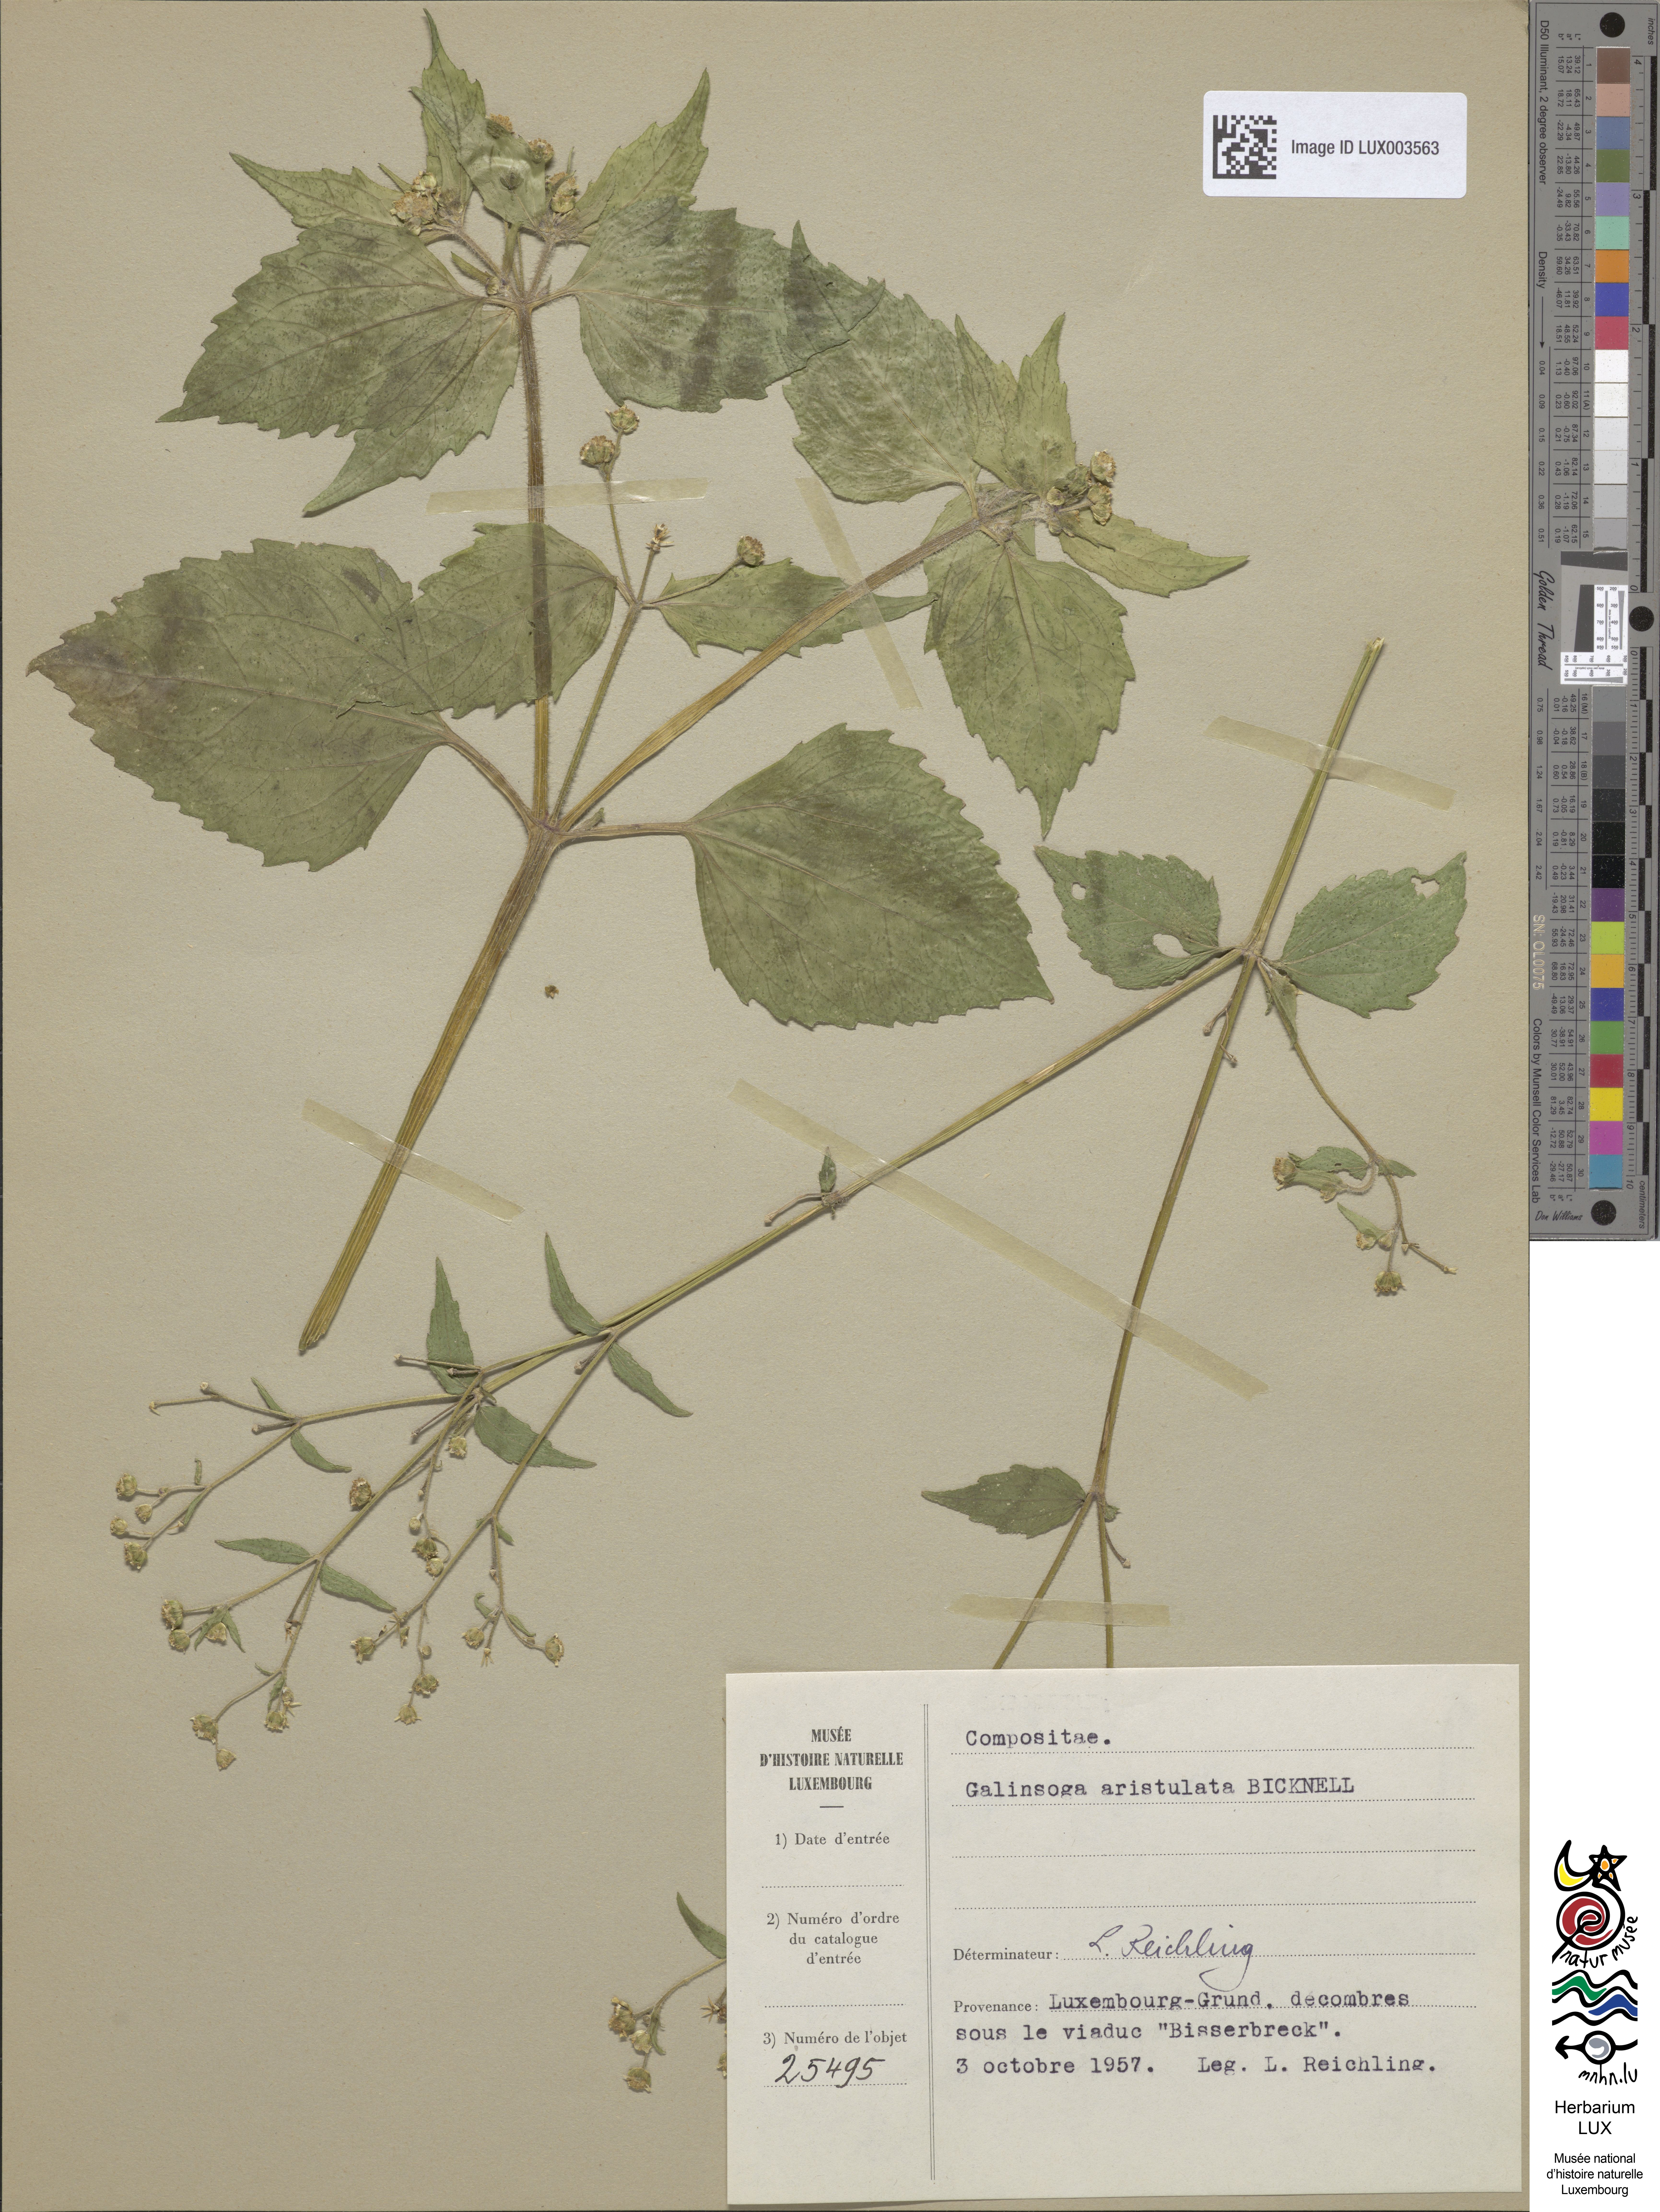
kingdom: Plantae
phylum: Tracheophyta
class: Magnoliopsida
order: Asterales
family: Asteraceae
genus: Galinsoga
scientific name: Galinsoga quadriradiata
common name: Shaggy soldier
